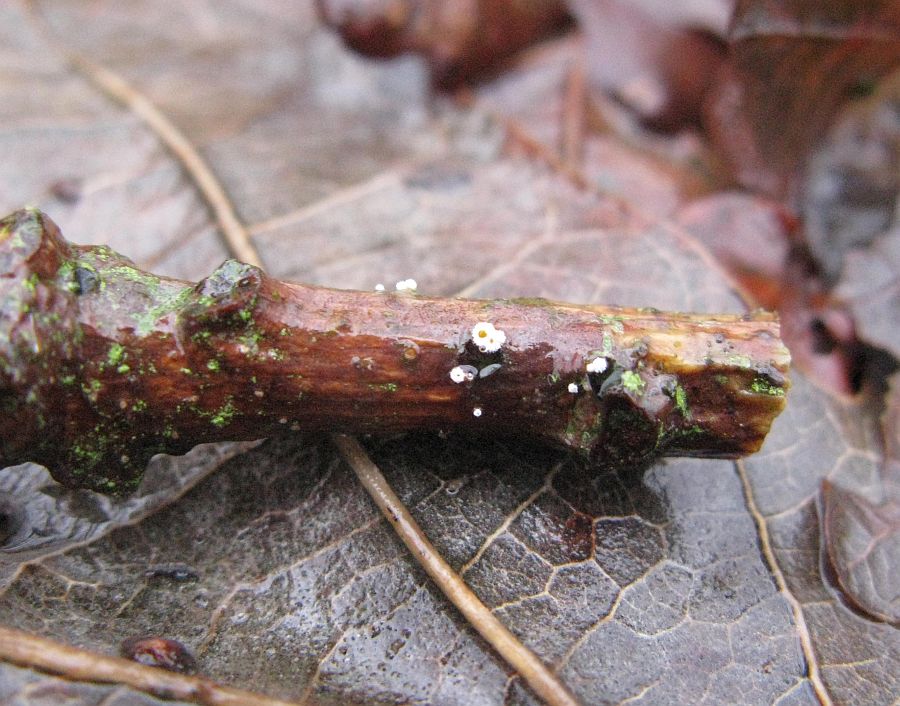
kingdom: Fungi
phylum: Ascomycota
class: Leotiomycetes
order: Helotiales
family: Lachnaceae
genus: Capitotricha
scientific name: Capitotricha bicolor
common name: prægtig frynseskive
